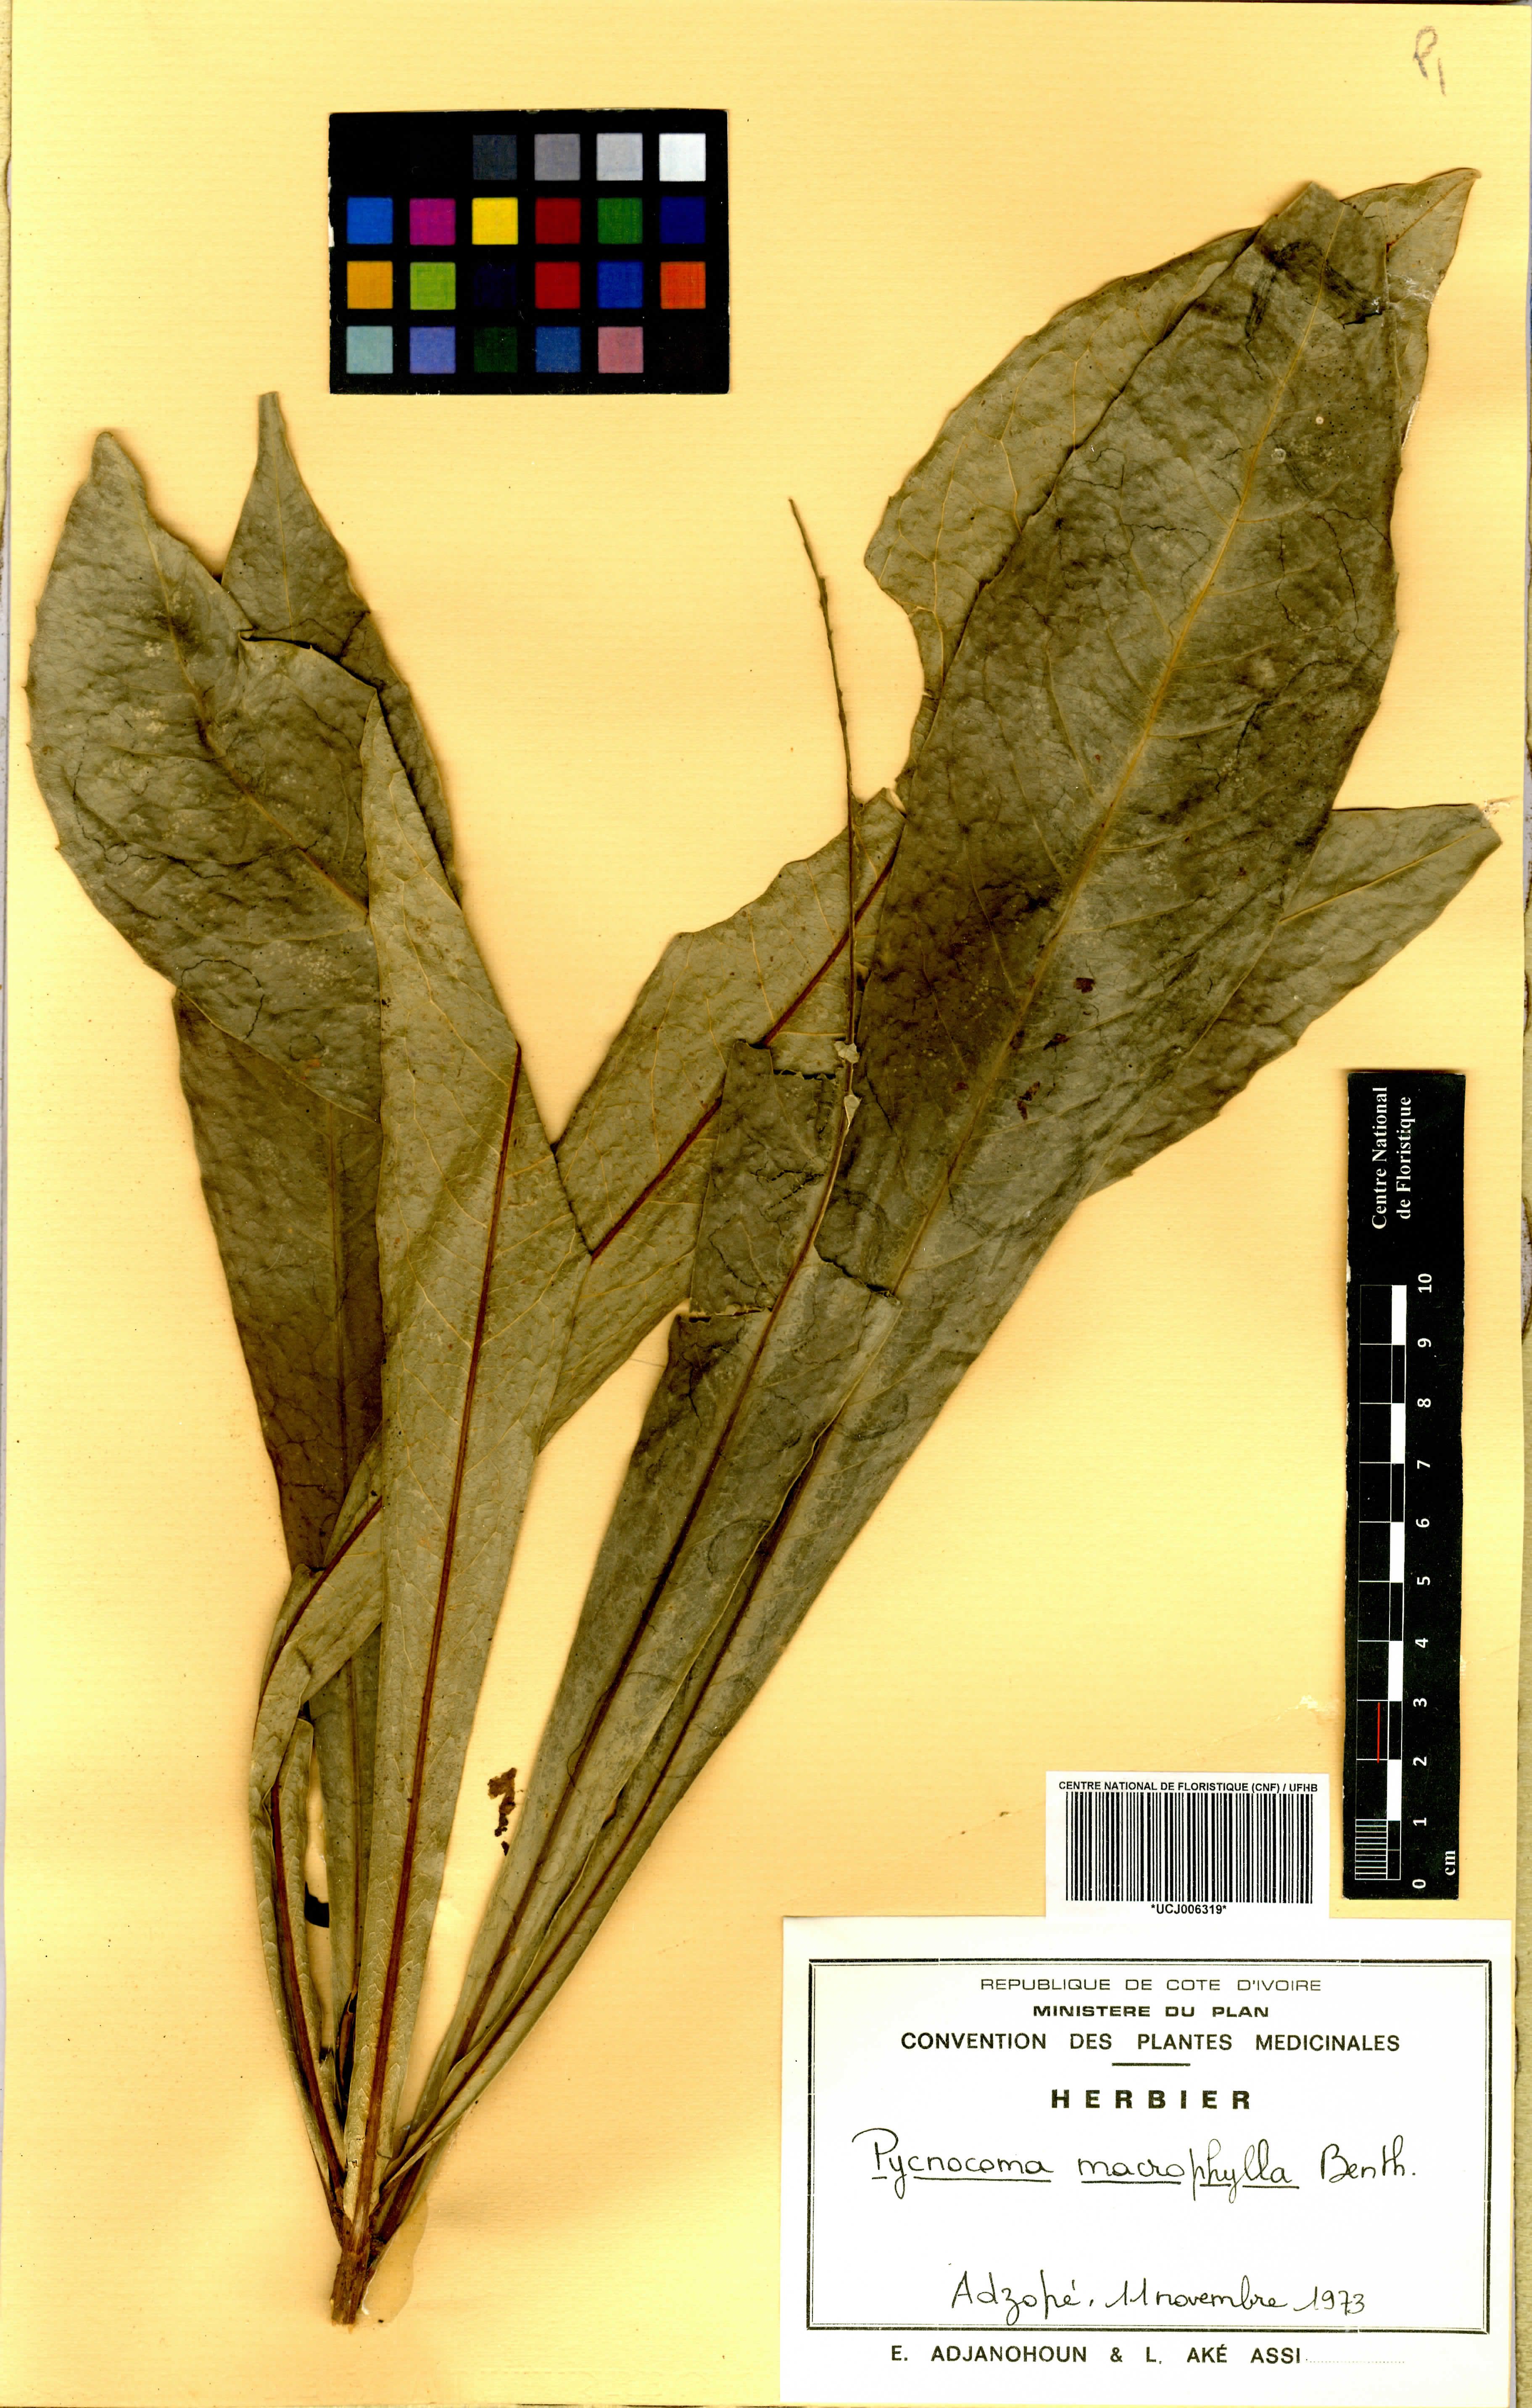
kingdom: Plantae
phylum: Tracheophyta
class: Magnoliopsida
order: Malpighiales
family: Euphorbiaceae
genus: Pycnocoma
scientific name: Pycnocoma macrophylla
